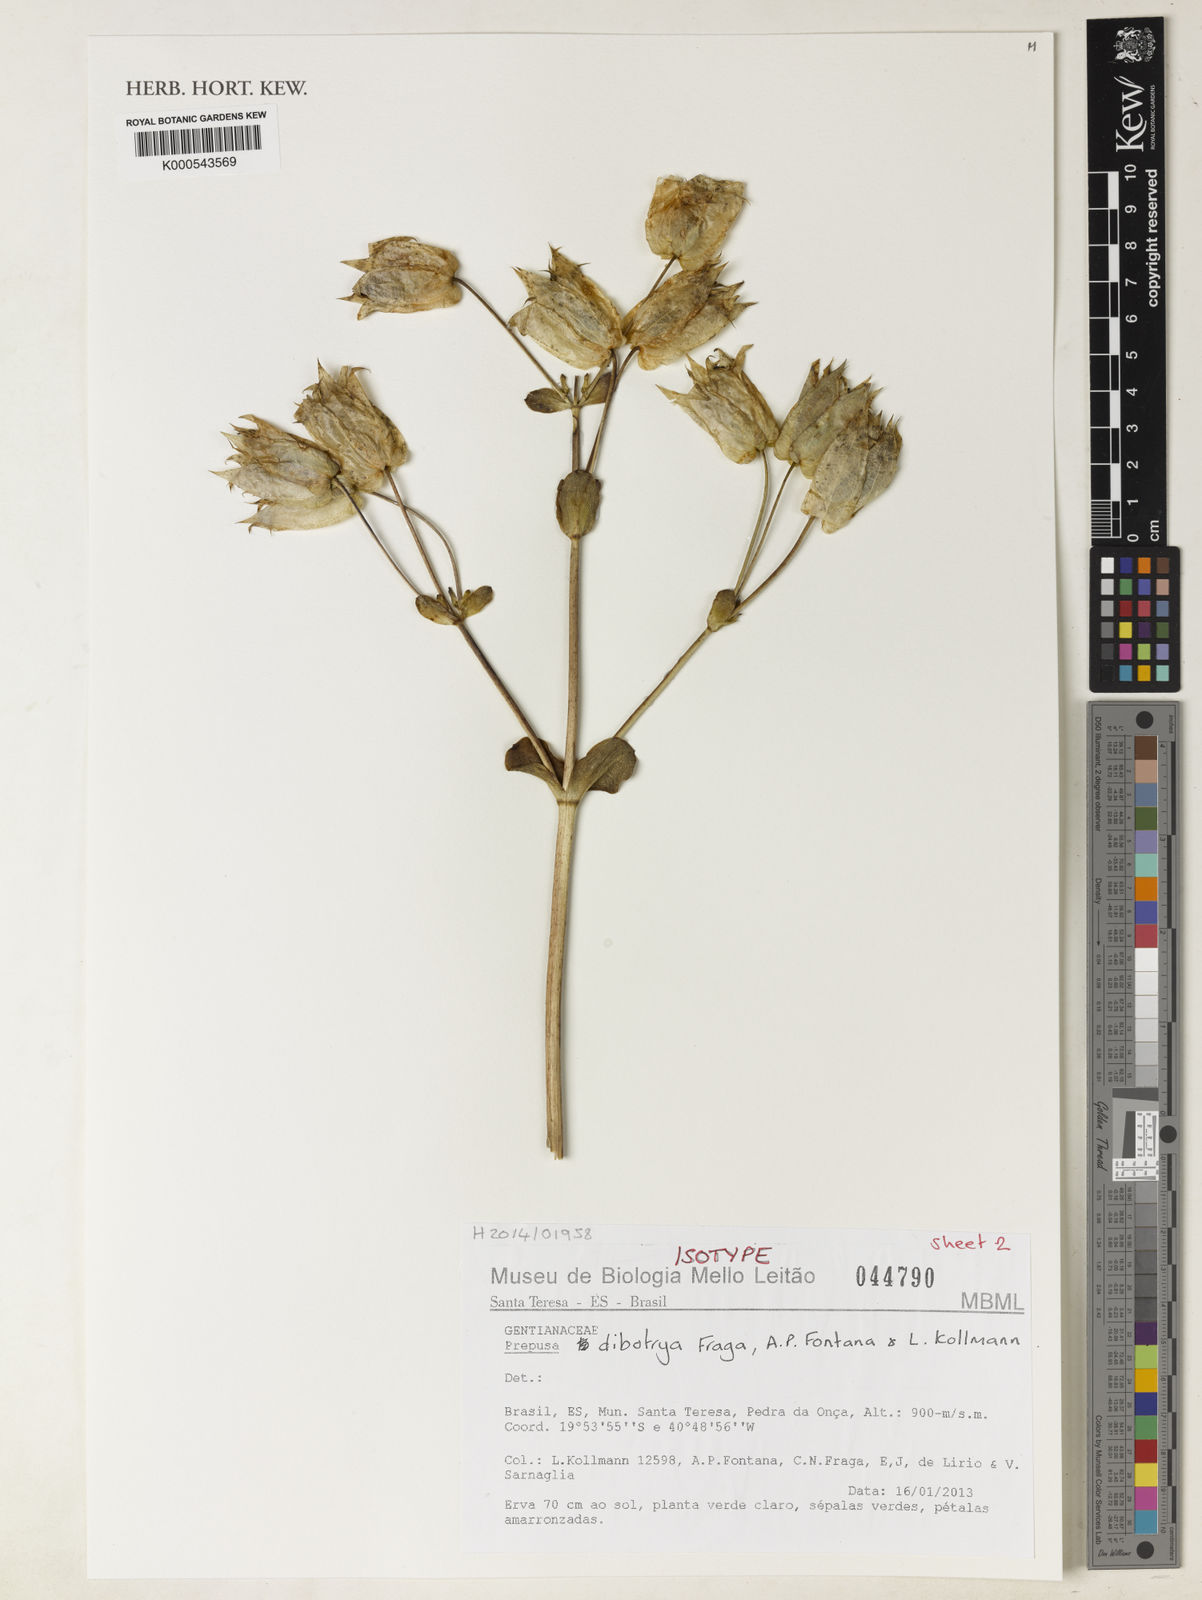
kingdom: Plantae
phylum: Tracheophyta
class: Magnoliopsida
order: Gentianales
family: Gentianaceae
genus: Prepusa
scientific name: Prepusa dibotrya
